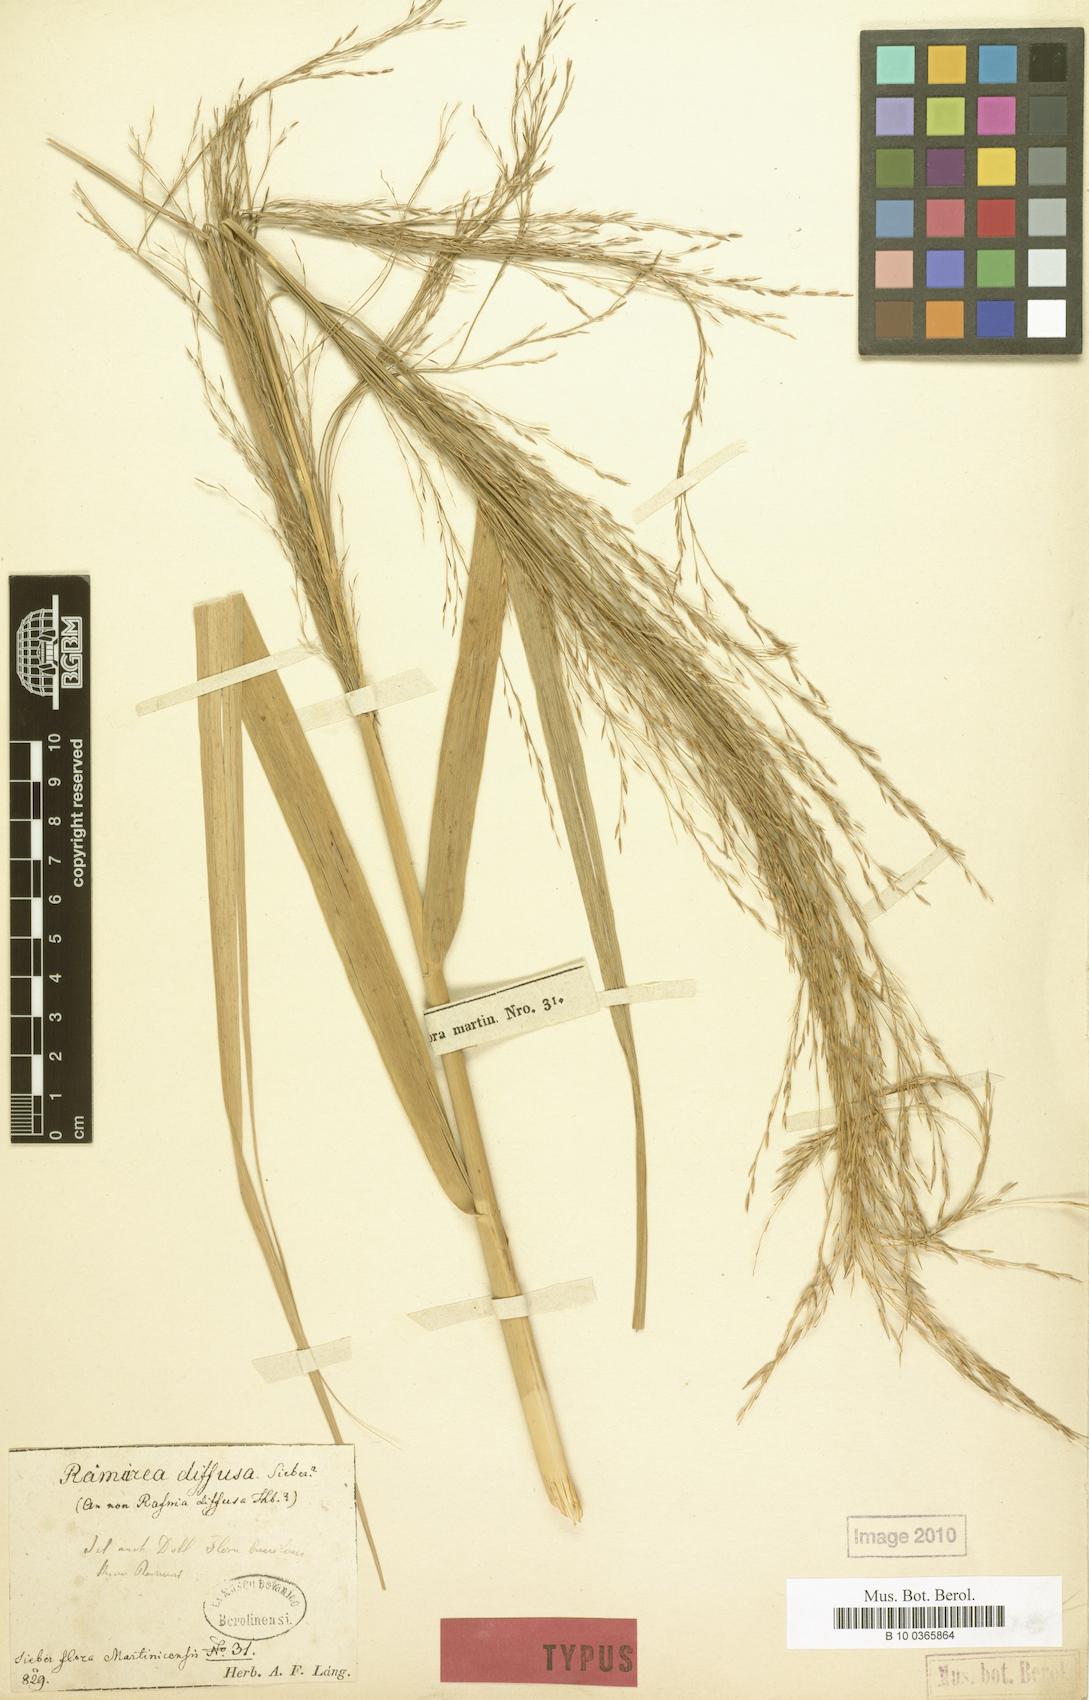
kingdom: Plantae
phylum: Tracheophyta
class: Liliopsida
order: Poales
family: Poaceae
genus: Phragmites
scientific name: Phragmites australis
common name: Common reed
